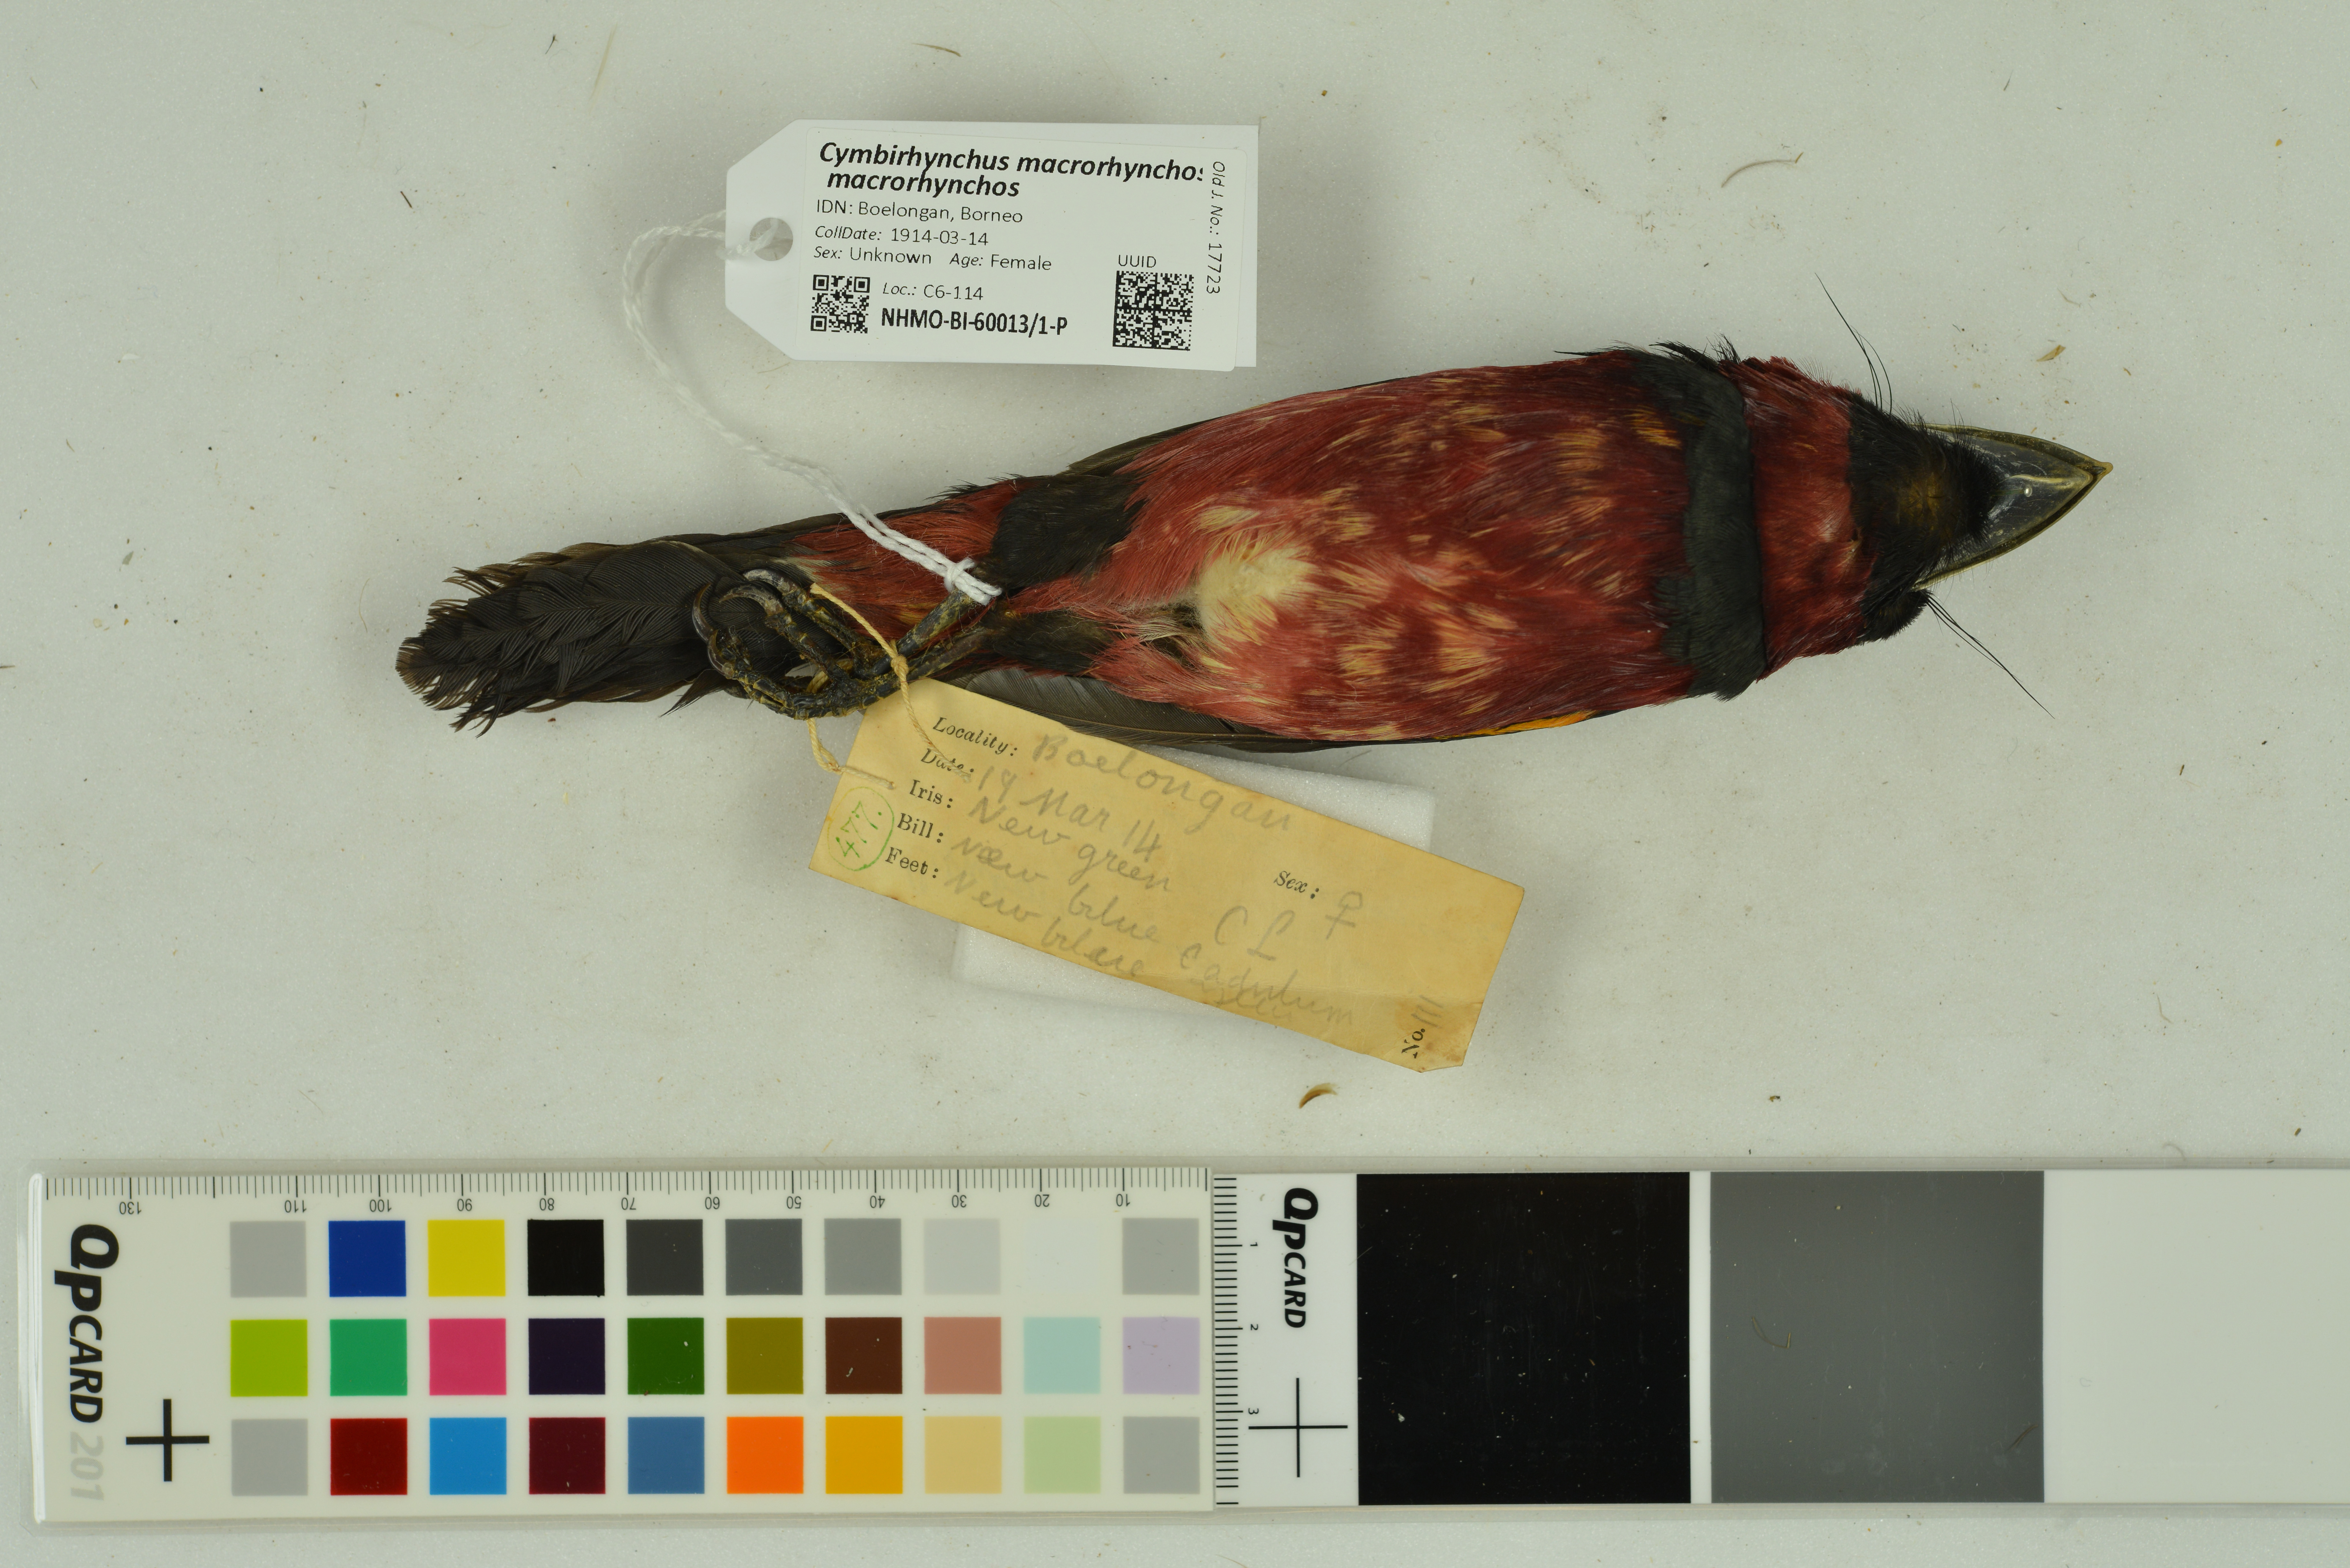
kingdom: Animalia
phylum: Chordata
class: Aves
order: Passeriformes
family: Eurylaimidae
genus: Cymbirhynchus
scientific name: Cymbirhynchus macrorhynchos
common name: Black-and-red broadbill
